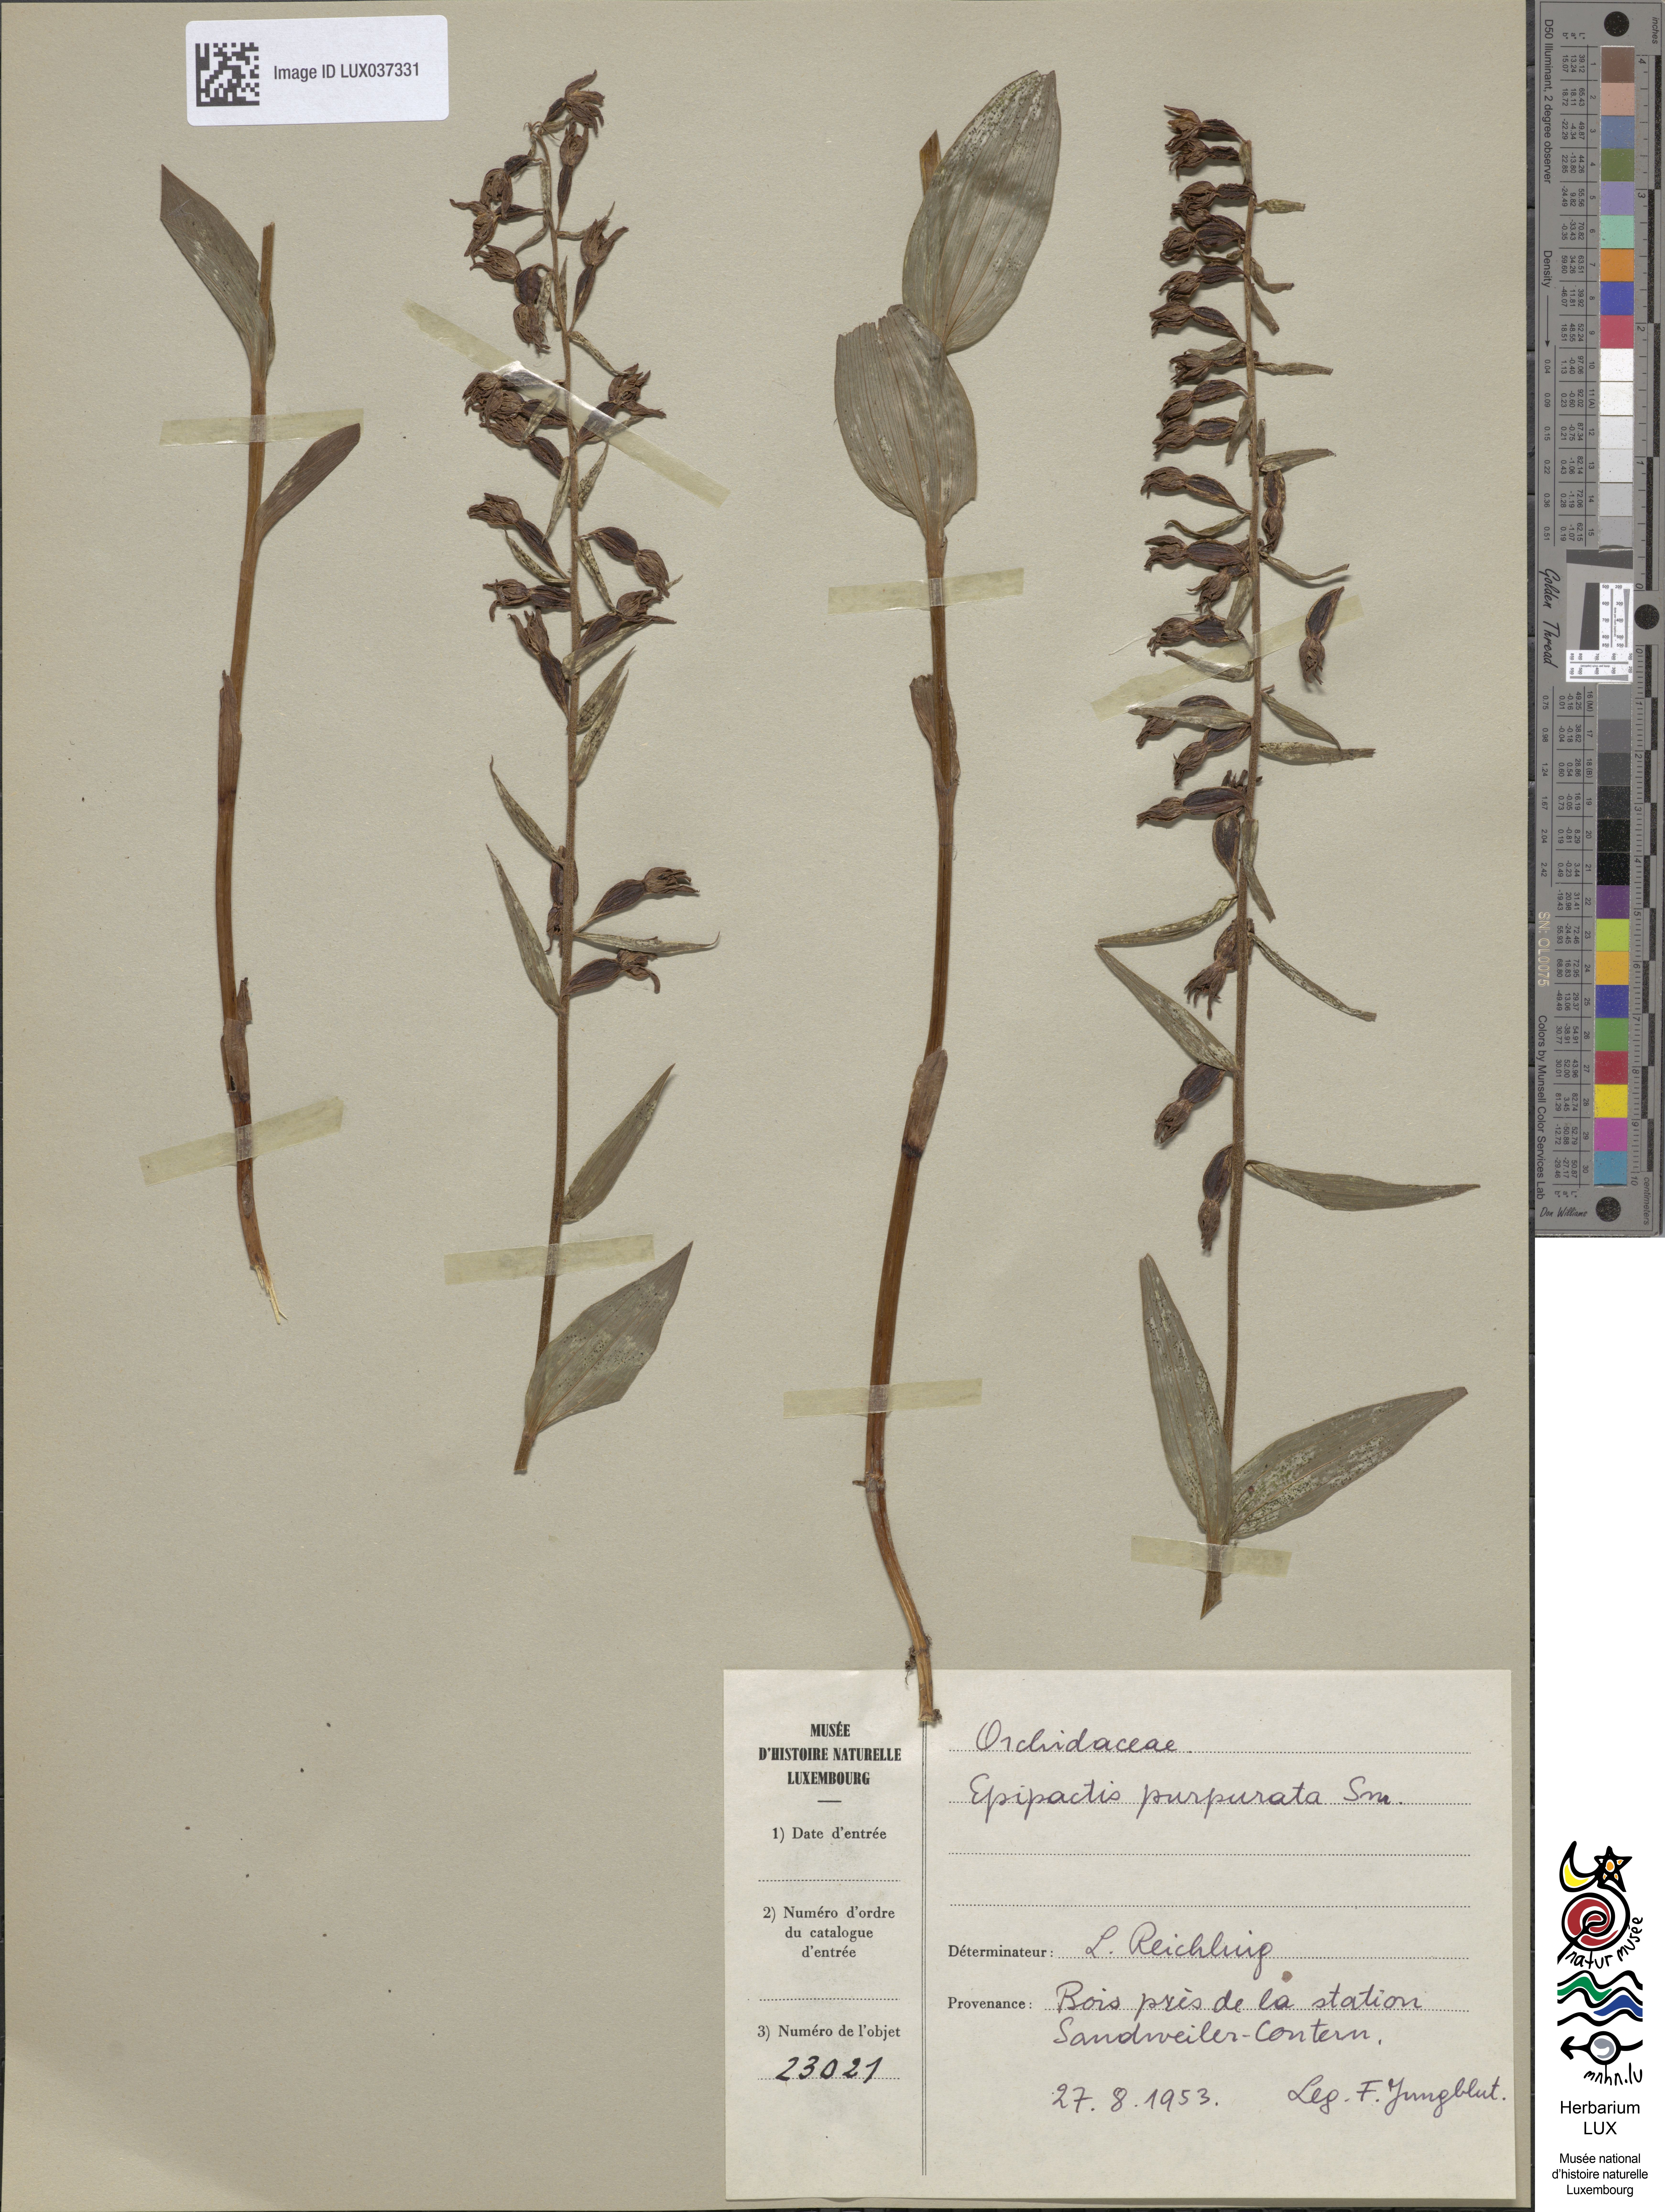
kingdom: Plantae
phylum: Tracheophyta
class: Liliopsida
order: Asparagales
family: Orchidaceae
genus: Epipactis
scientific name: Epipactis purpurata
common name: Violet helleborine
